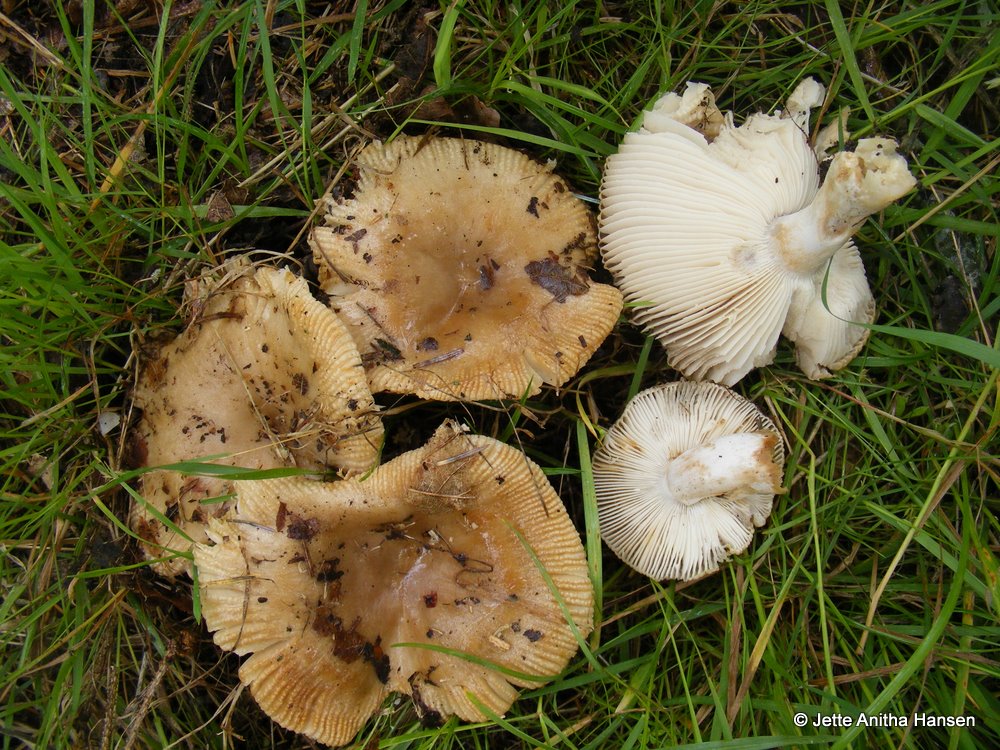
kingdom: Fungi
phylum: Basidiomycota
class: Agaricomycetes
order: Russulales
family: Russulaceae
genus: Russula
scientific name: Russula recondita
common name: mild kam-skørhat
